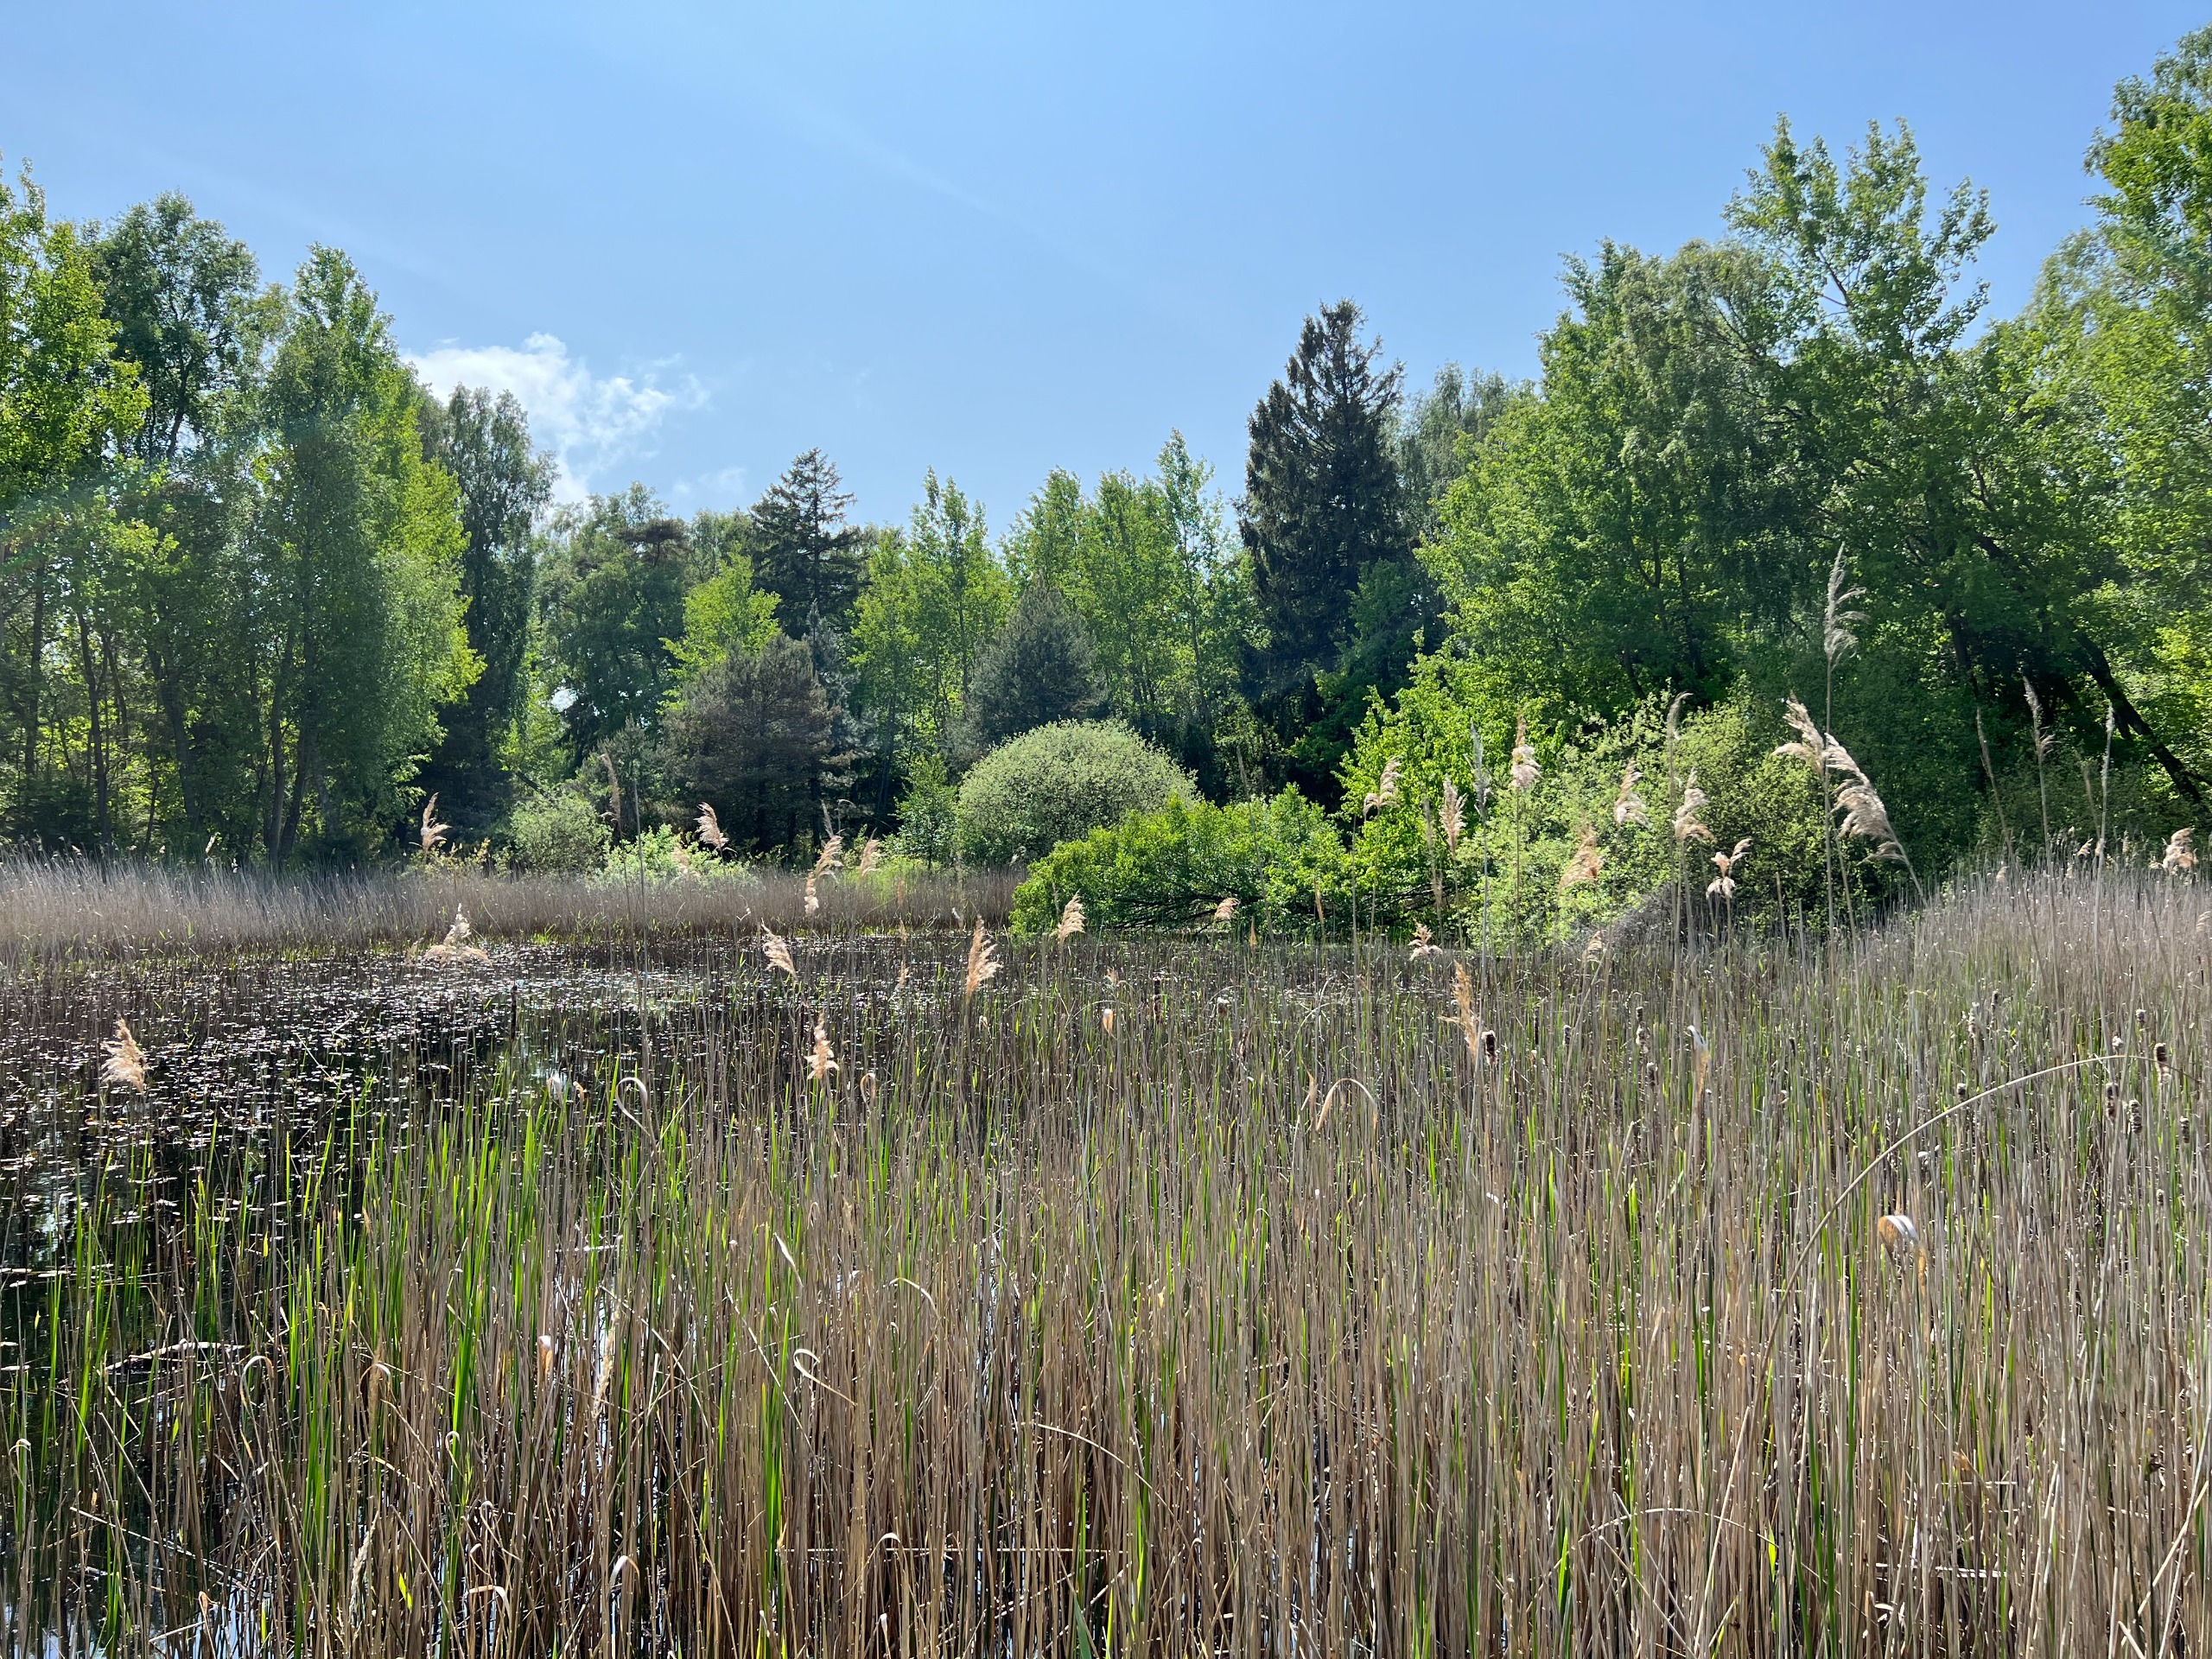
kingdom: Plantae
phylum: Tracheophyta
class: Liliopsida
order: Poales
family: Poaceae
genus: Phragmites
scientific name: Phragmites australis
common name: Tagrør
